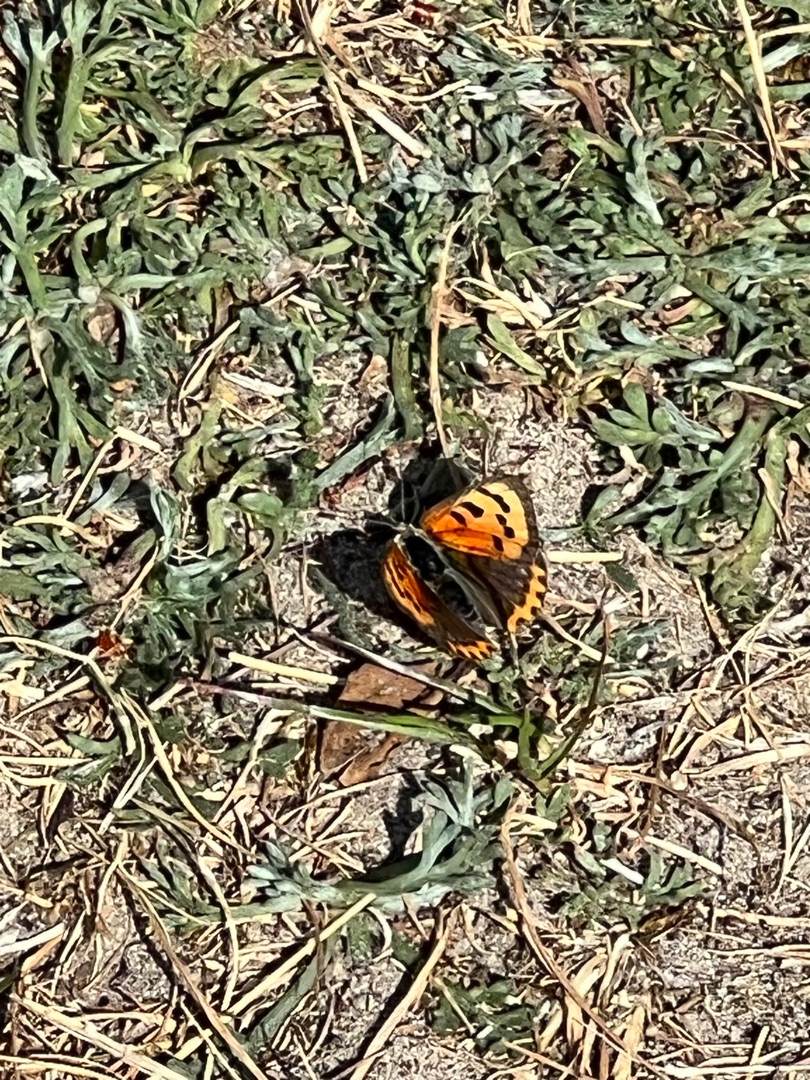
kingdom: Animalia
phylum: Arthropoda
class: Insecta
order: Lepidoptera
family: Lycaenidae
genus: Lycaena
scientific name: Lycaena phlaeas
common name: Lille ildfugl
